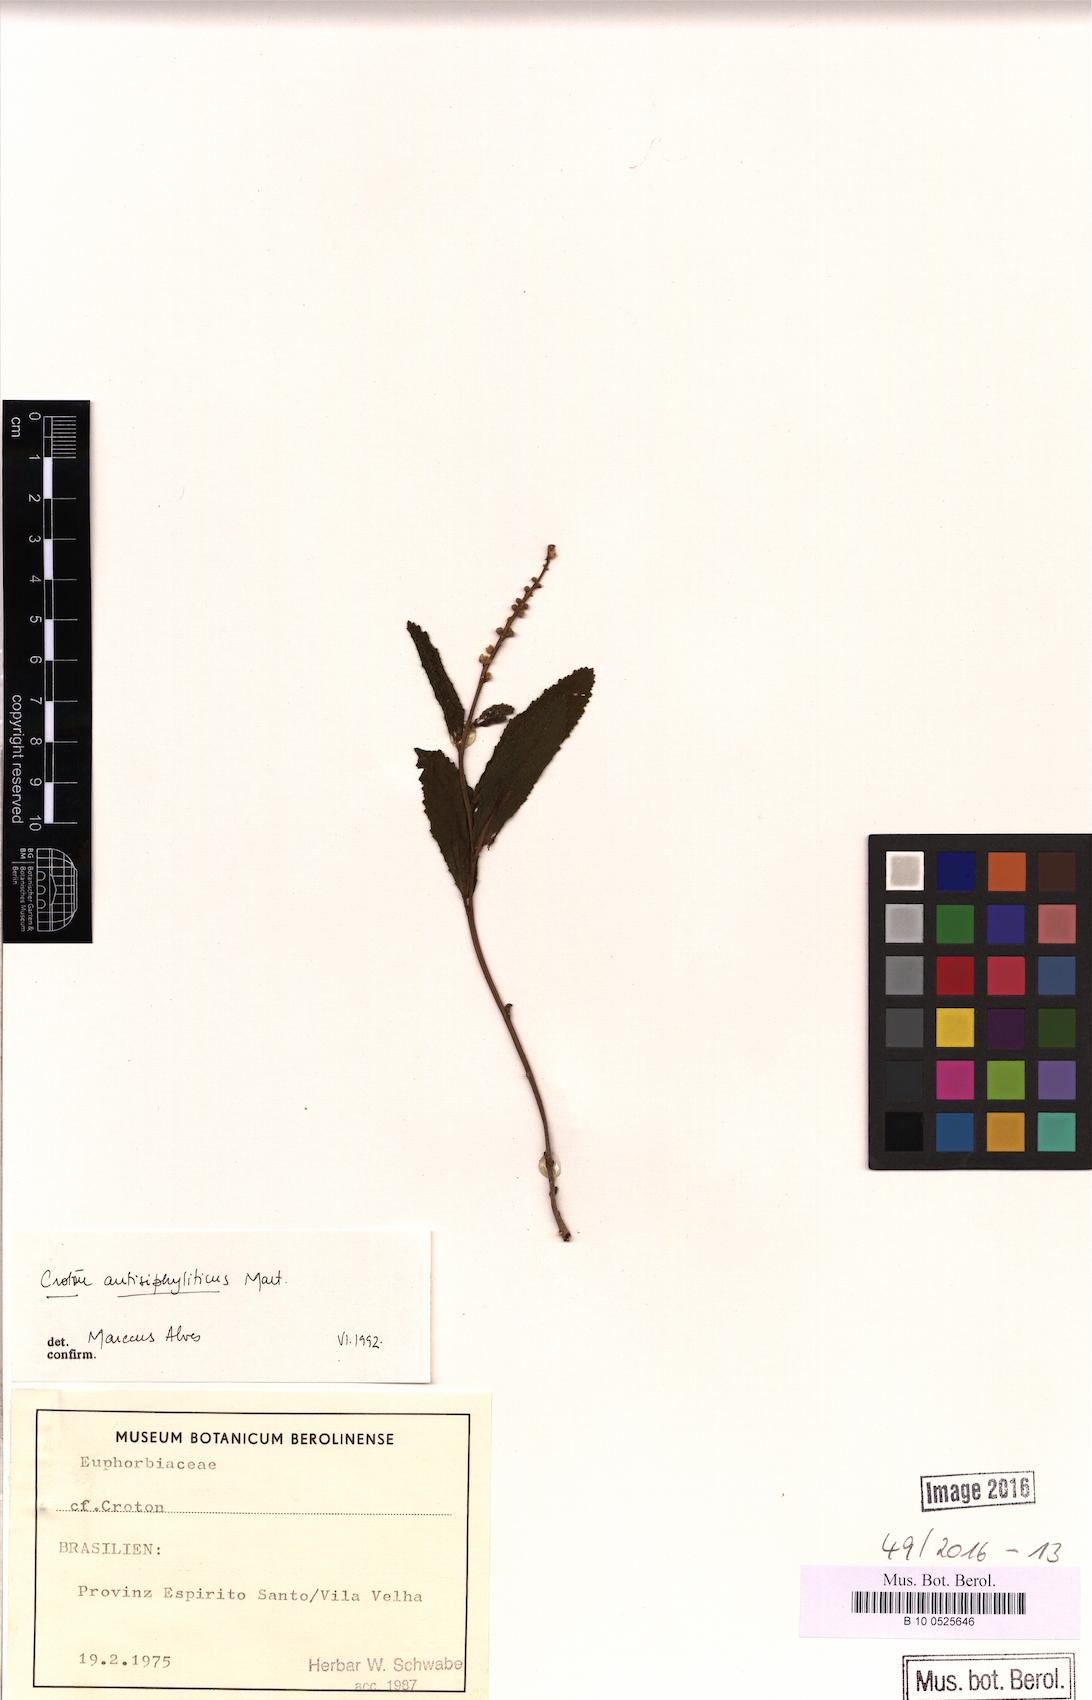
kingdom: Plantae
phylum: Tracheophyta
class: Magnoliopsida
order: Malpighiales
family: Euphorbiaceae
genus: Croton
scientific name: Croton antisyphiliticus
